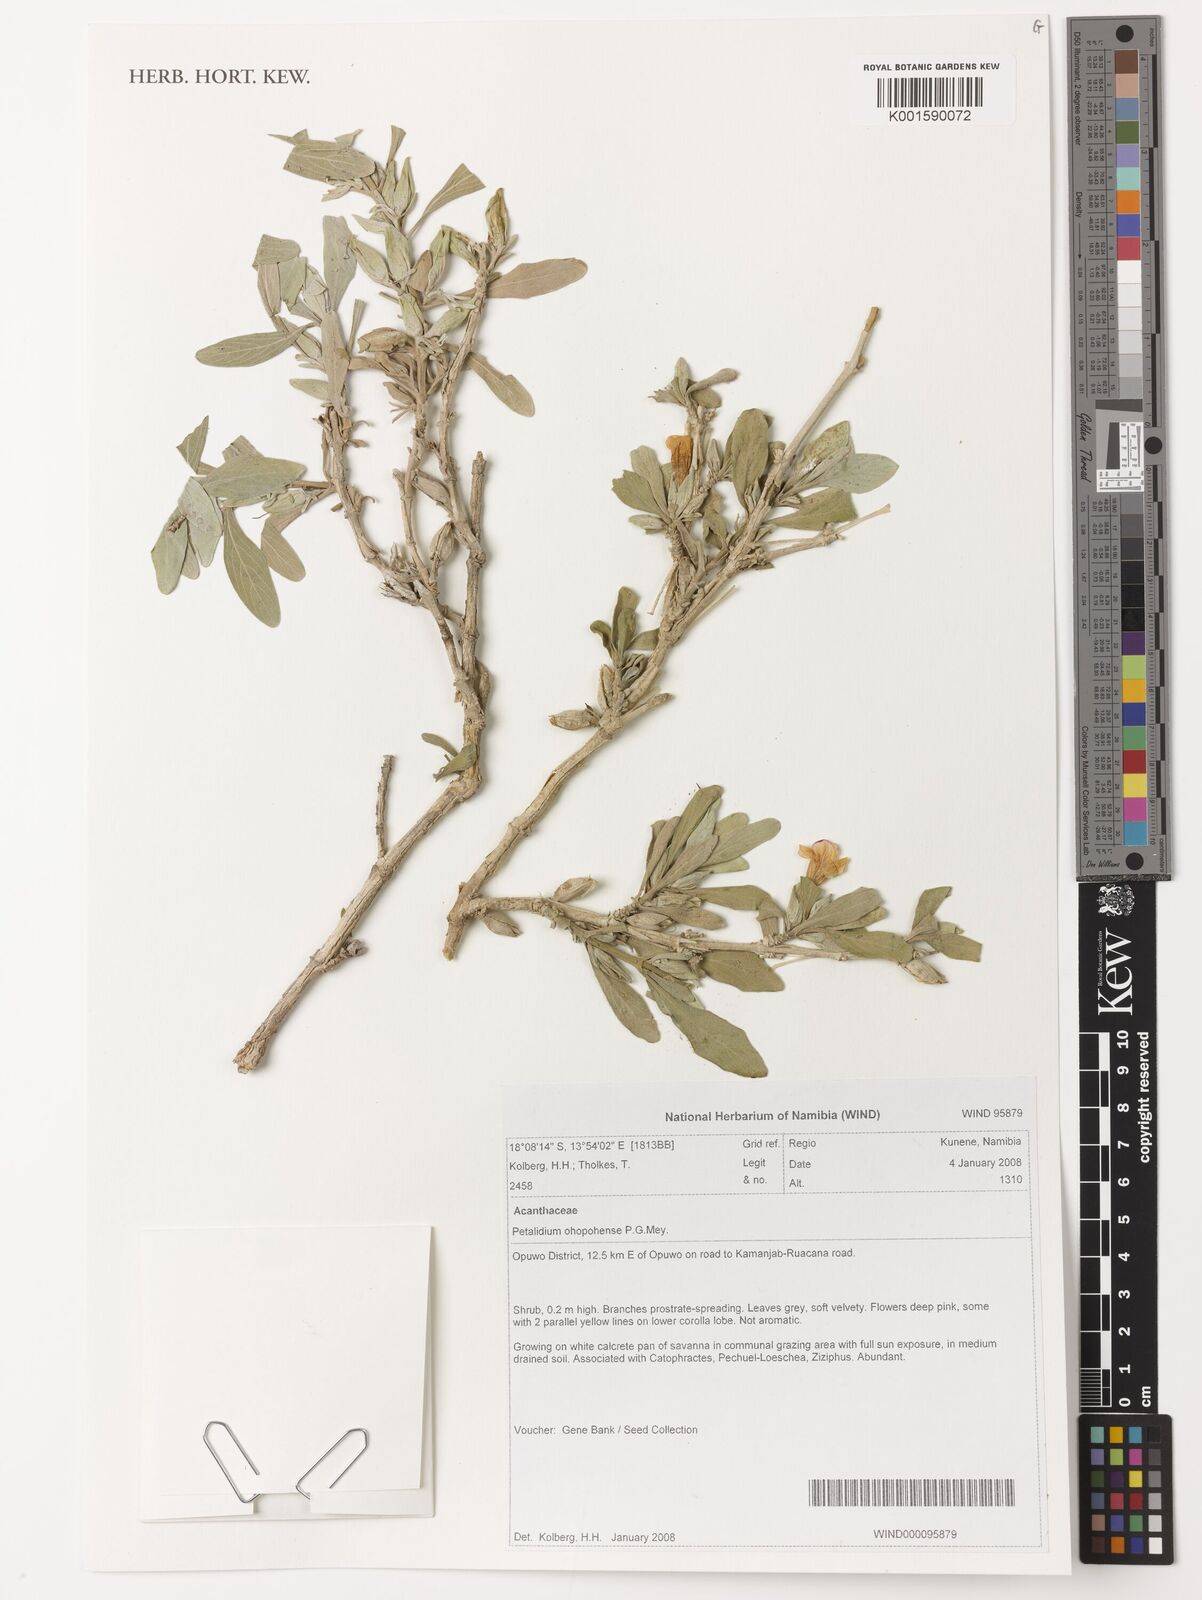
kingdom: Plantae
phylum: Tracheophyta
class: Magnoliopsida
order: Lamiales
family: Acanthaceae
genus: Petalidium
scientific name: Petalidium ohopohense
